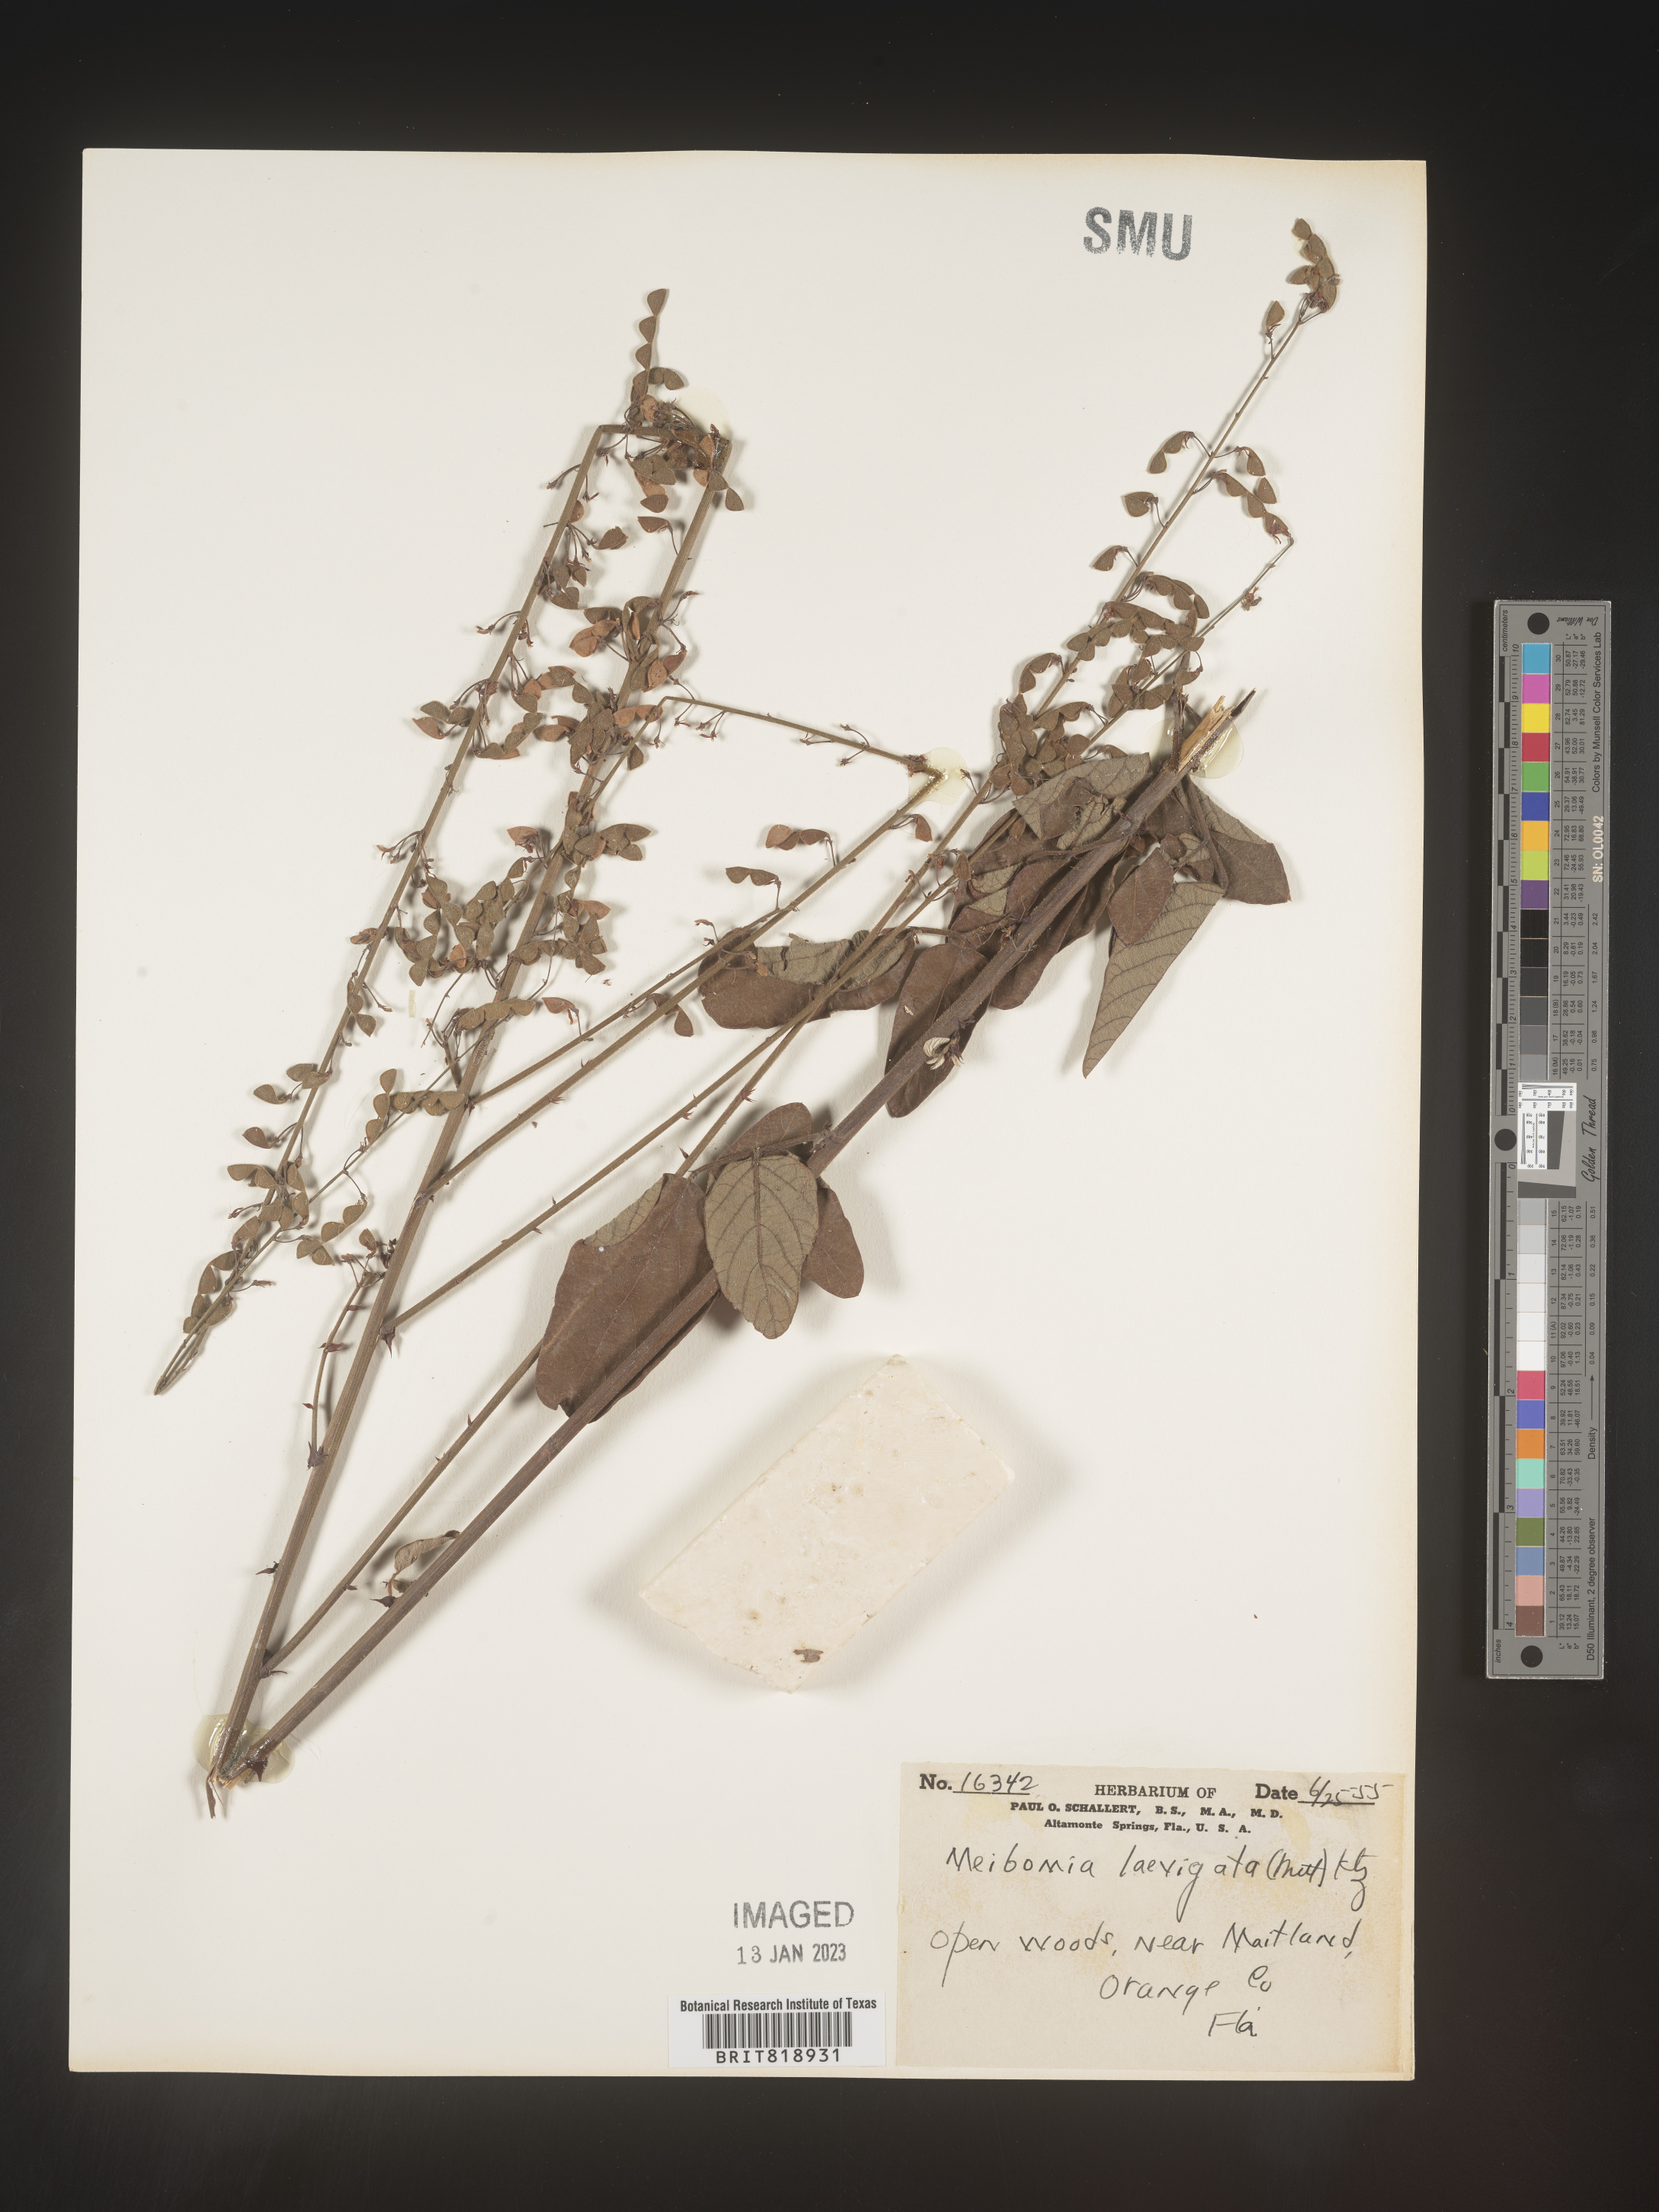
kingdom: Plantae
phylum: Tracheophyta
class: Magnoliopsida
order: Fabales
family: Fabaceae
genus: Desmodium
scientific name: Desmodium laevigatum
